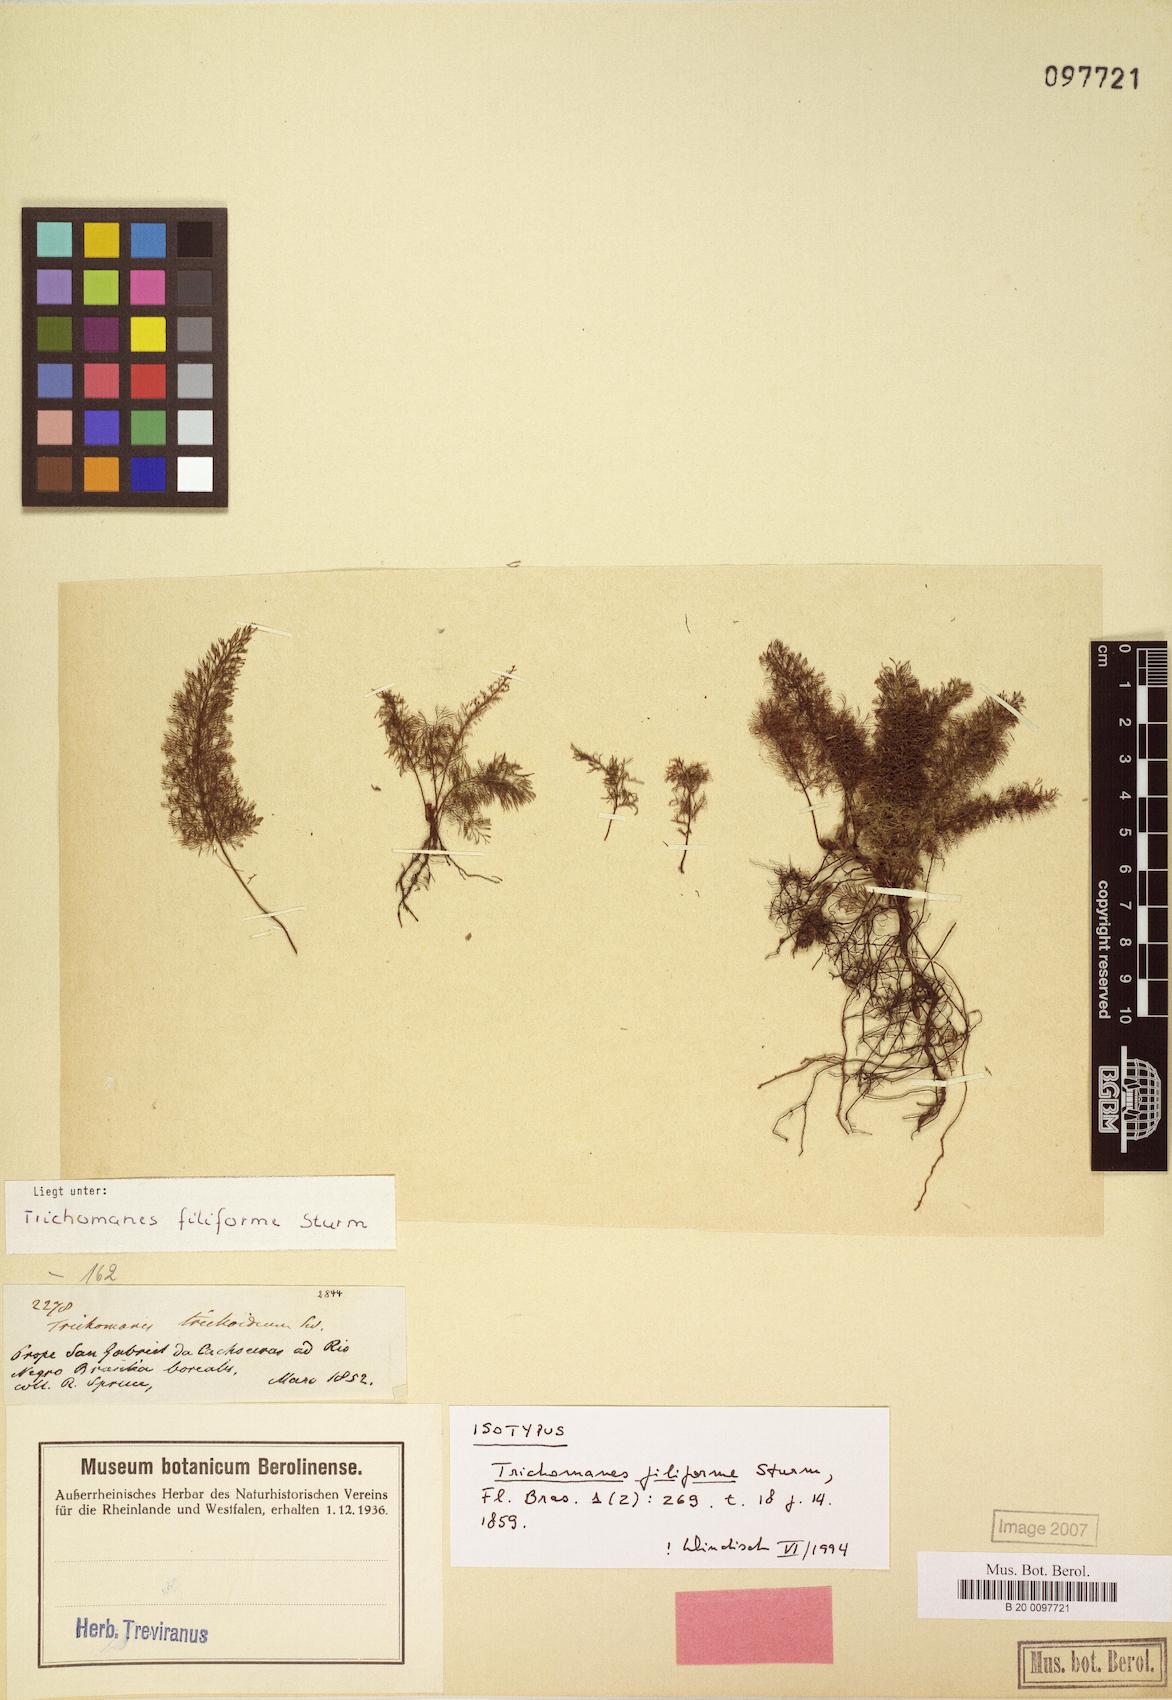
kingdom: Plantae
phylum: Tracheophyta
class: Polypodiopsida
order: Hymenophyllales
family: Hymenophyllaceae
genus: Abrodictyum
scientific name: Abrodictyum cellulosum
